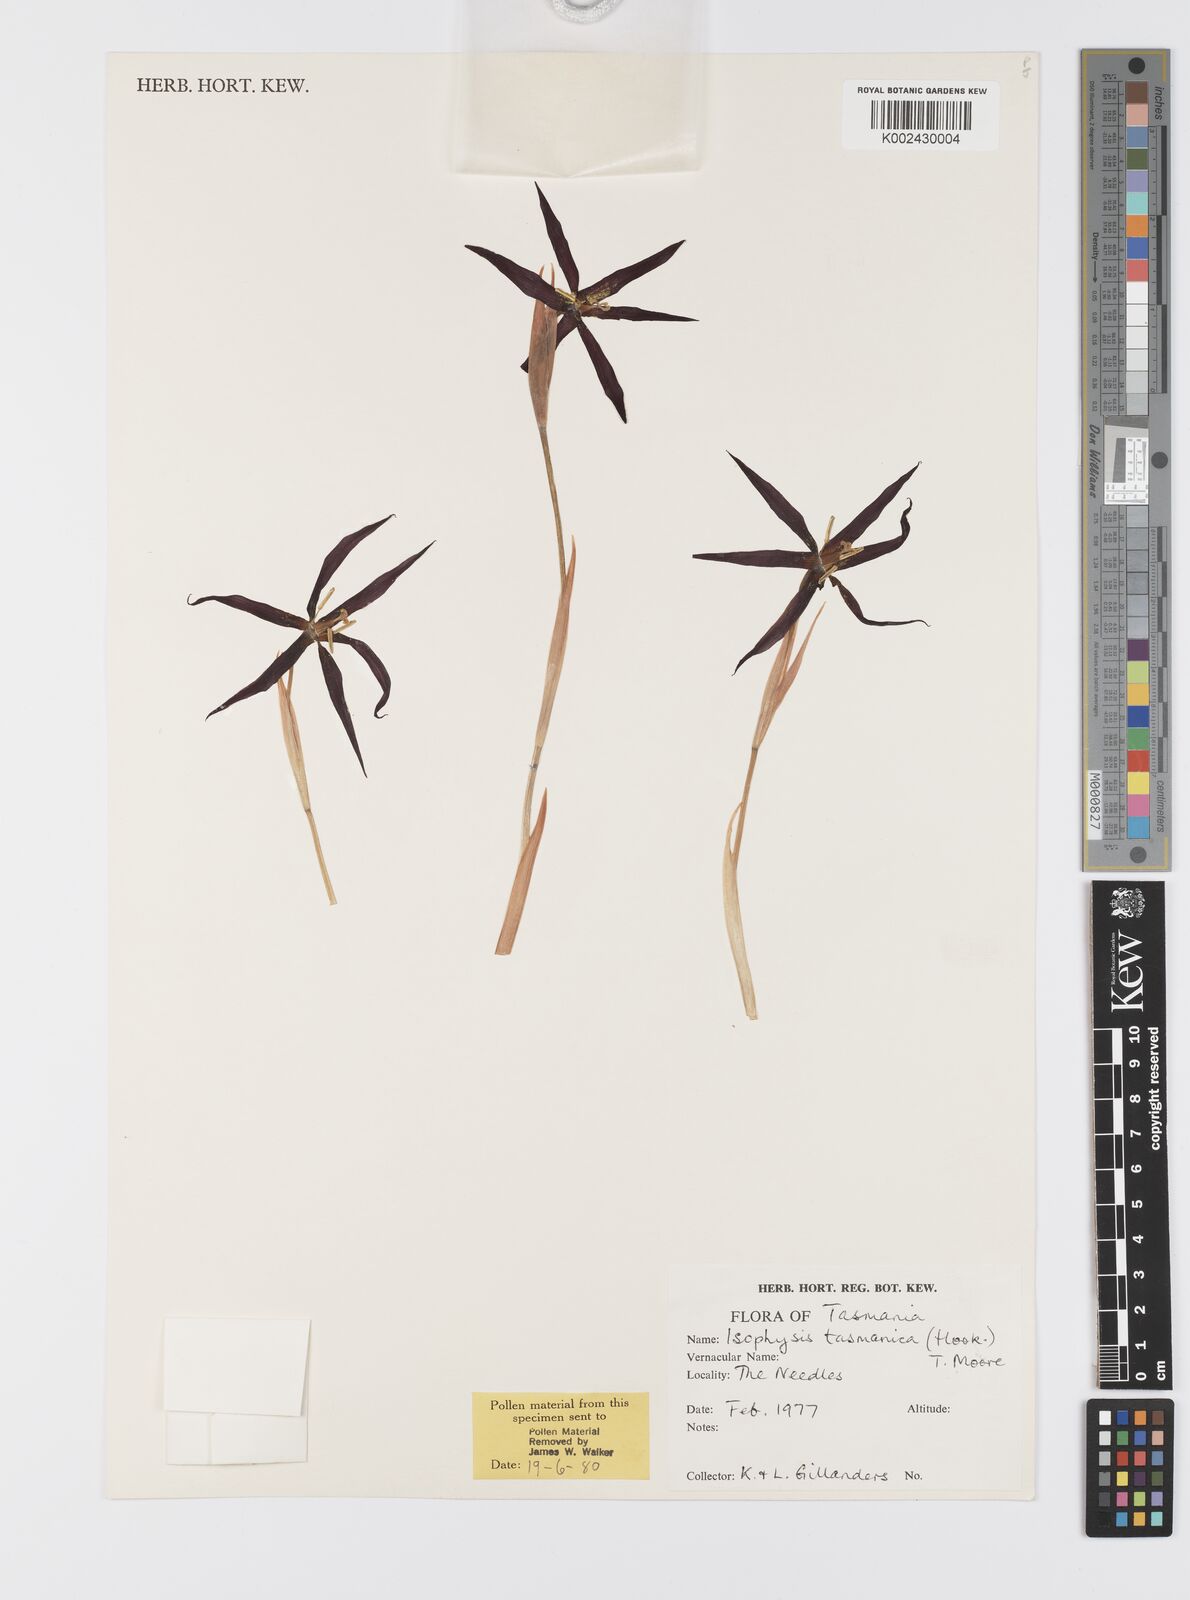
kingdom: Plantae
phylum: Tracheophyta
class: Liliopsida
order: Asparagales
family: Iridaceae
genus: Isophysis
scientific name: Isophysis
